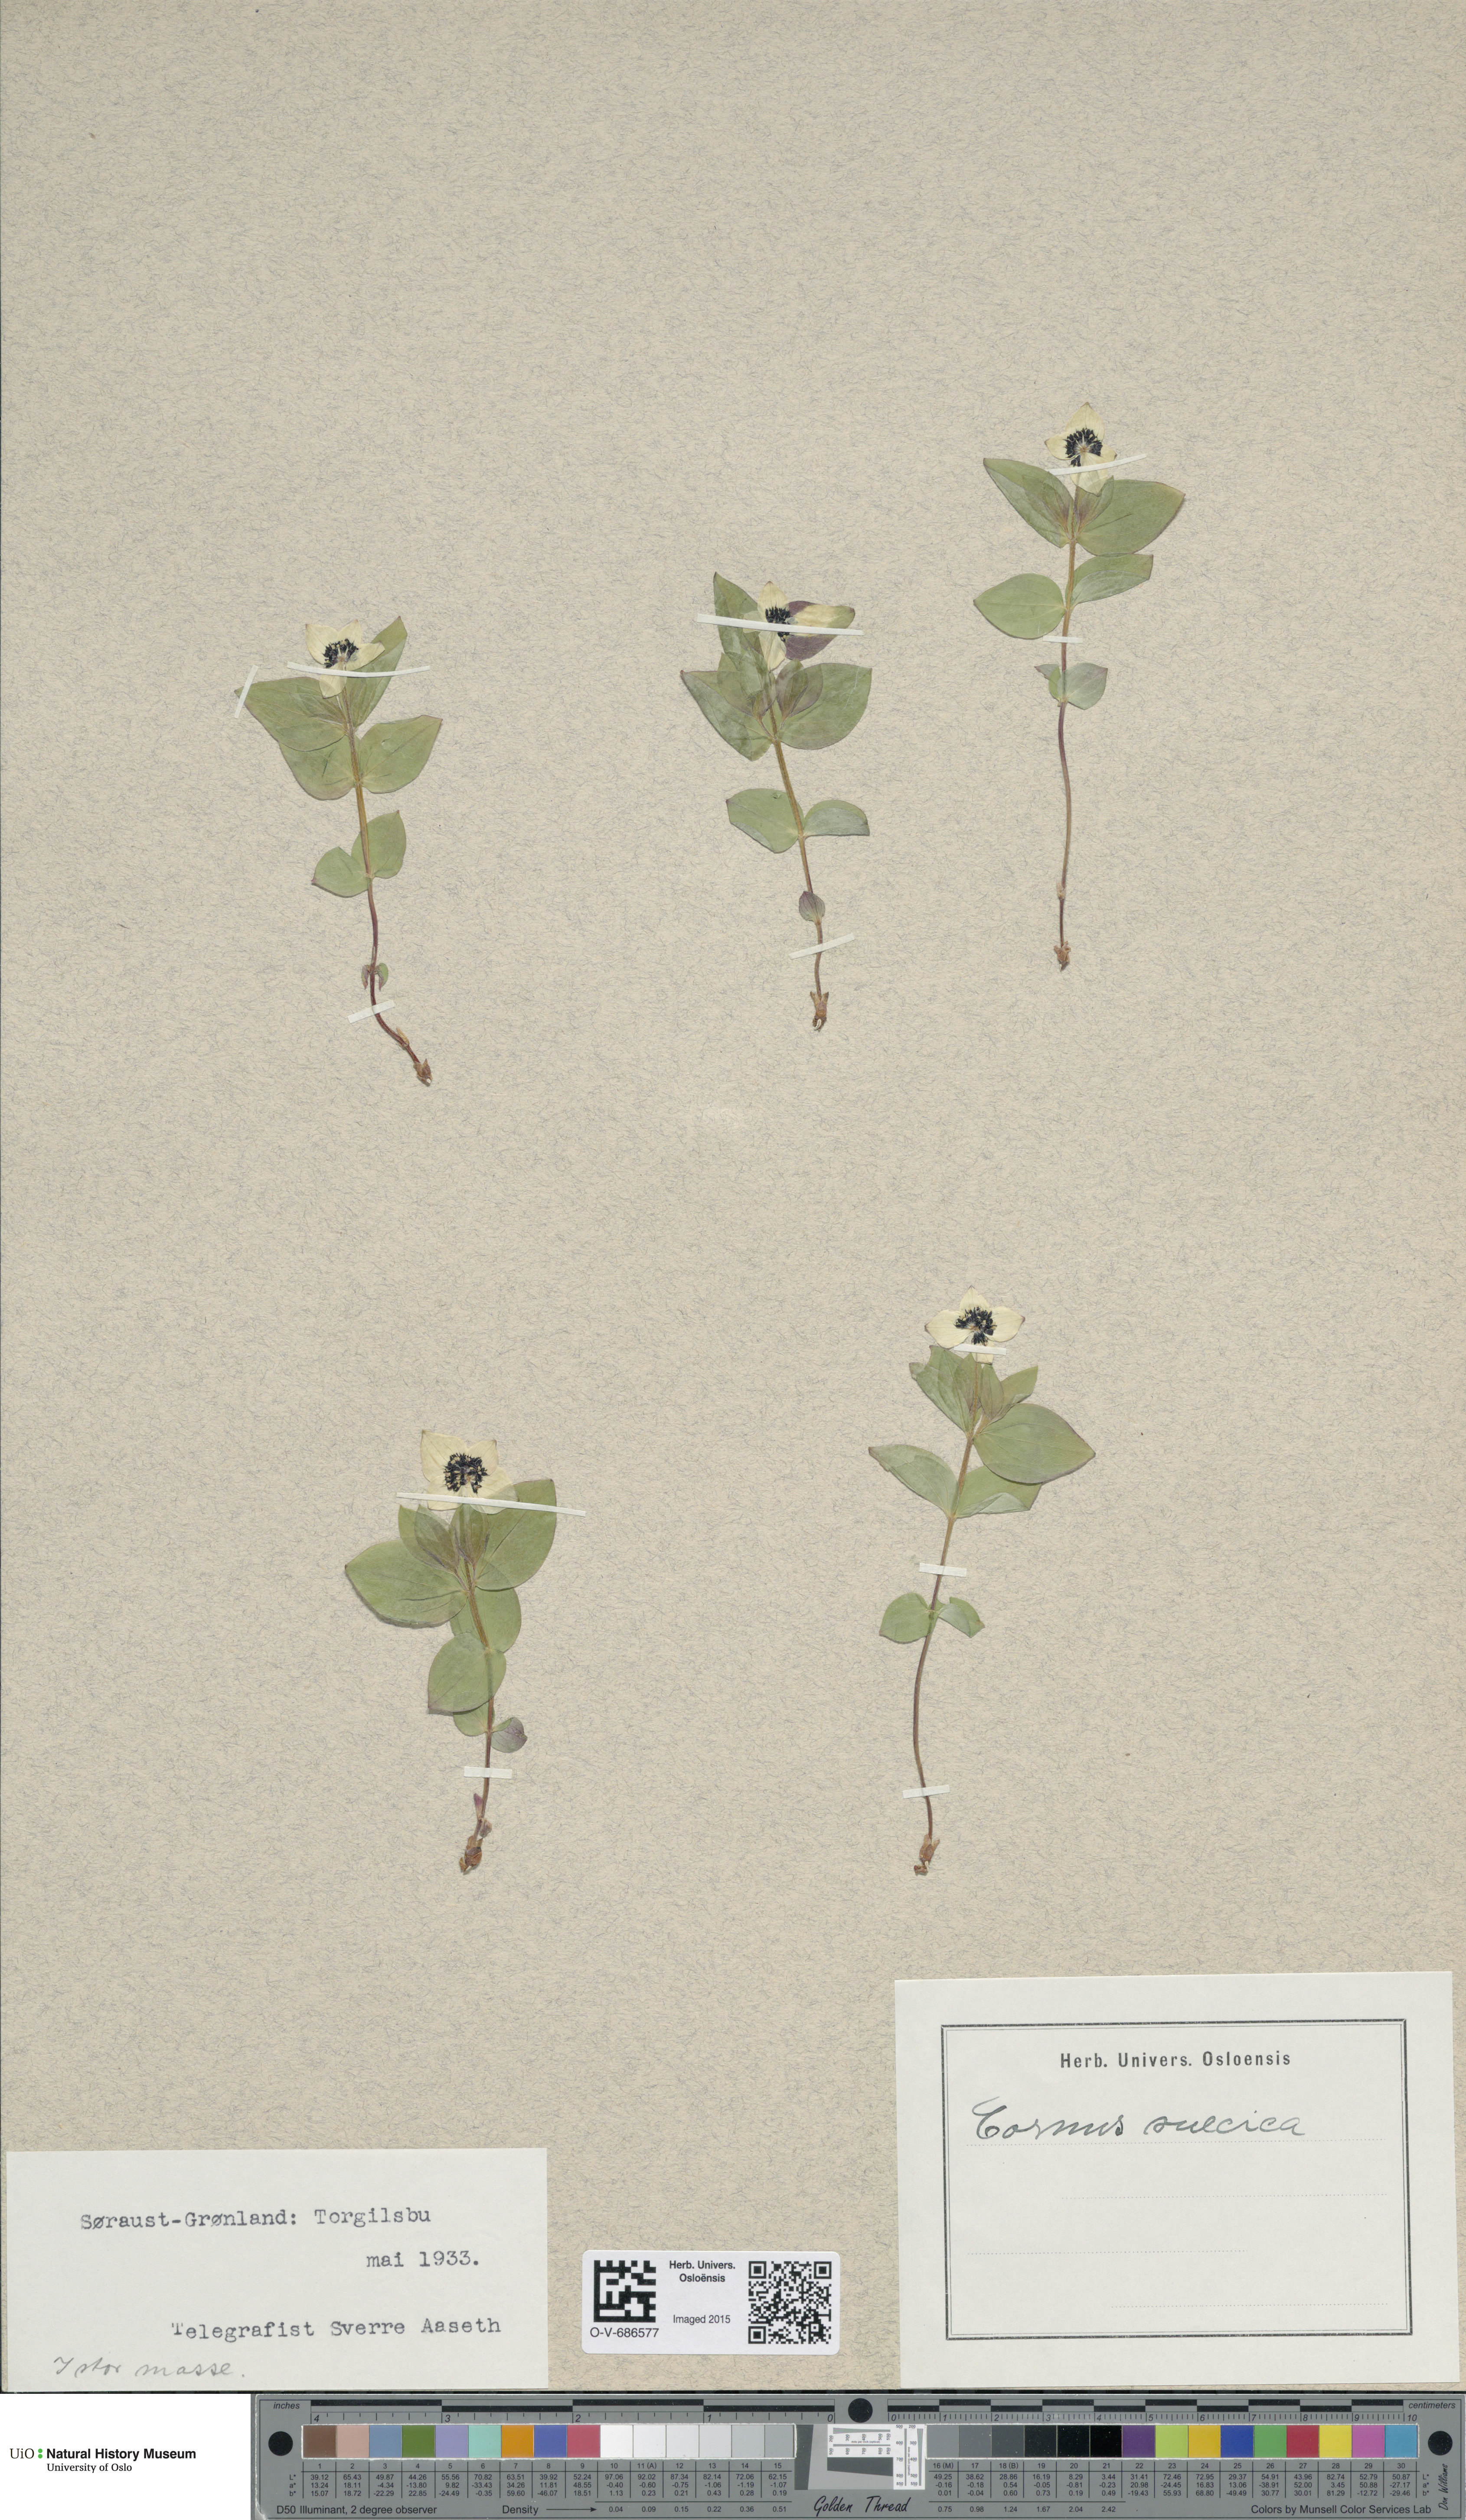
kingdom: Plantae
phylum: Tracheophyta
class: Magnoliopsida
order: Cornales
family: Cornaceae
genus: Cornus
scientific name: Cornus suecica
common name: Dwarf cornel
